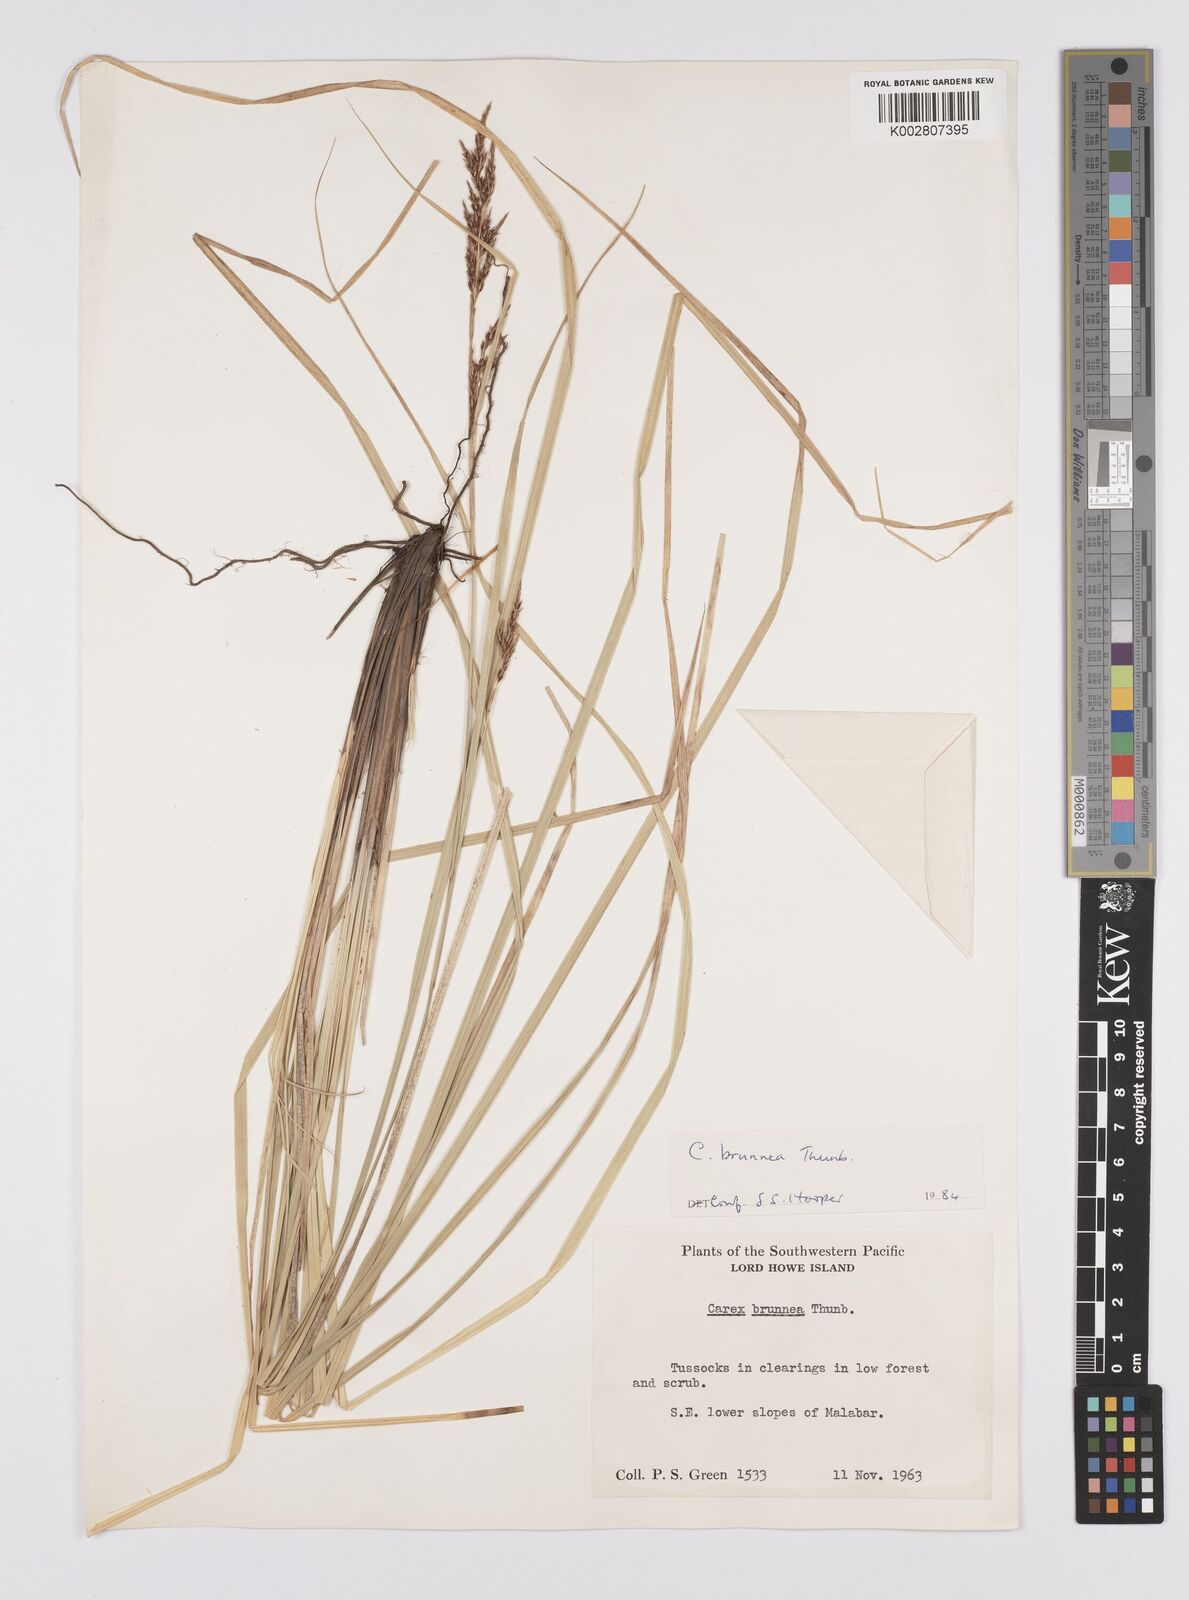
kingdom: Plantae
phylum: Tracheophyta
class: Liliopsida
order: Poales
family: Cyperaceae
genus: Carex
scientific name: Carex hattoriana
